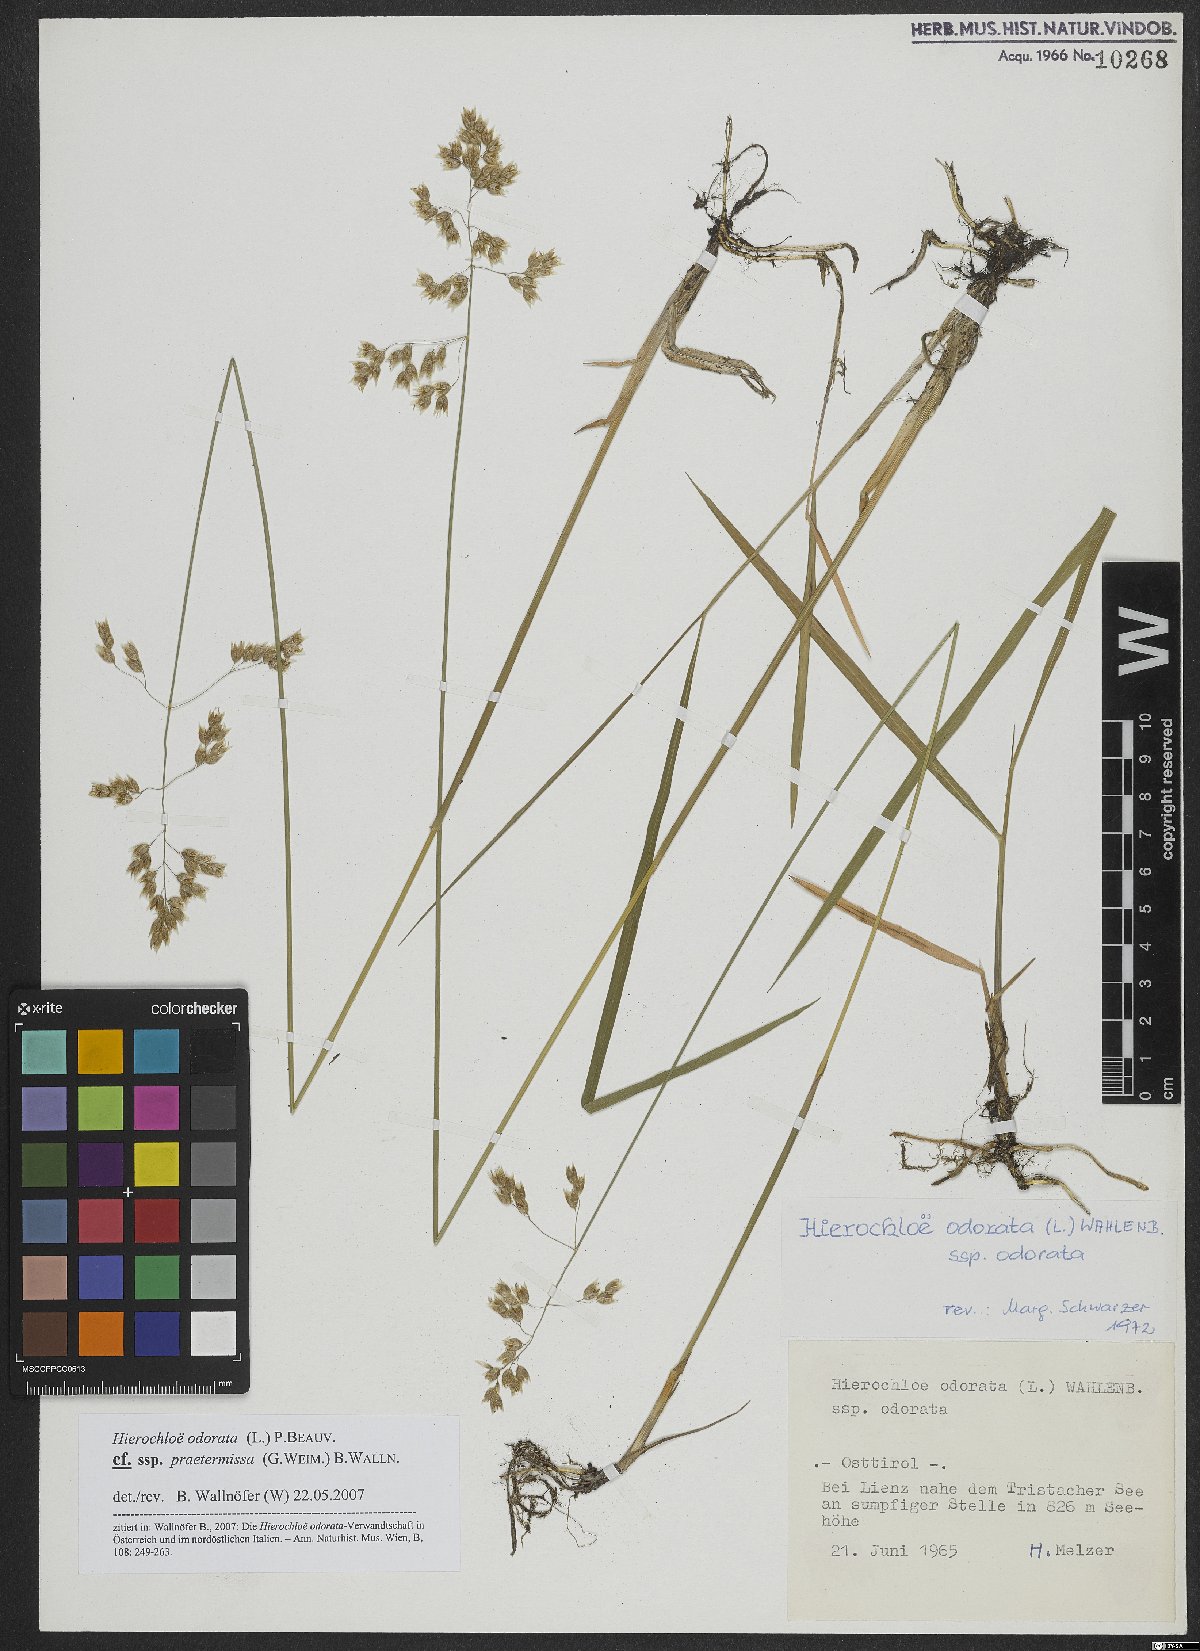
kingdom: Plantae
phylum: Tracheophyta
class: Liliopsida
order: Poales
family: Poaceae
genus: Anthoxanthum
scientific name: Anthoxanthum nitens
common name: Holy grass
